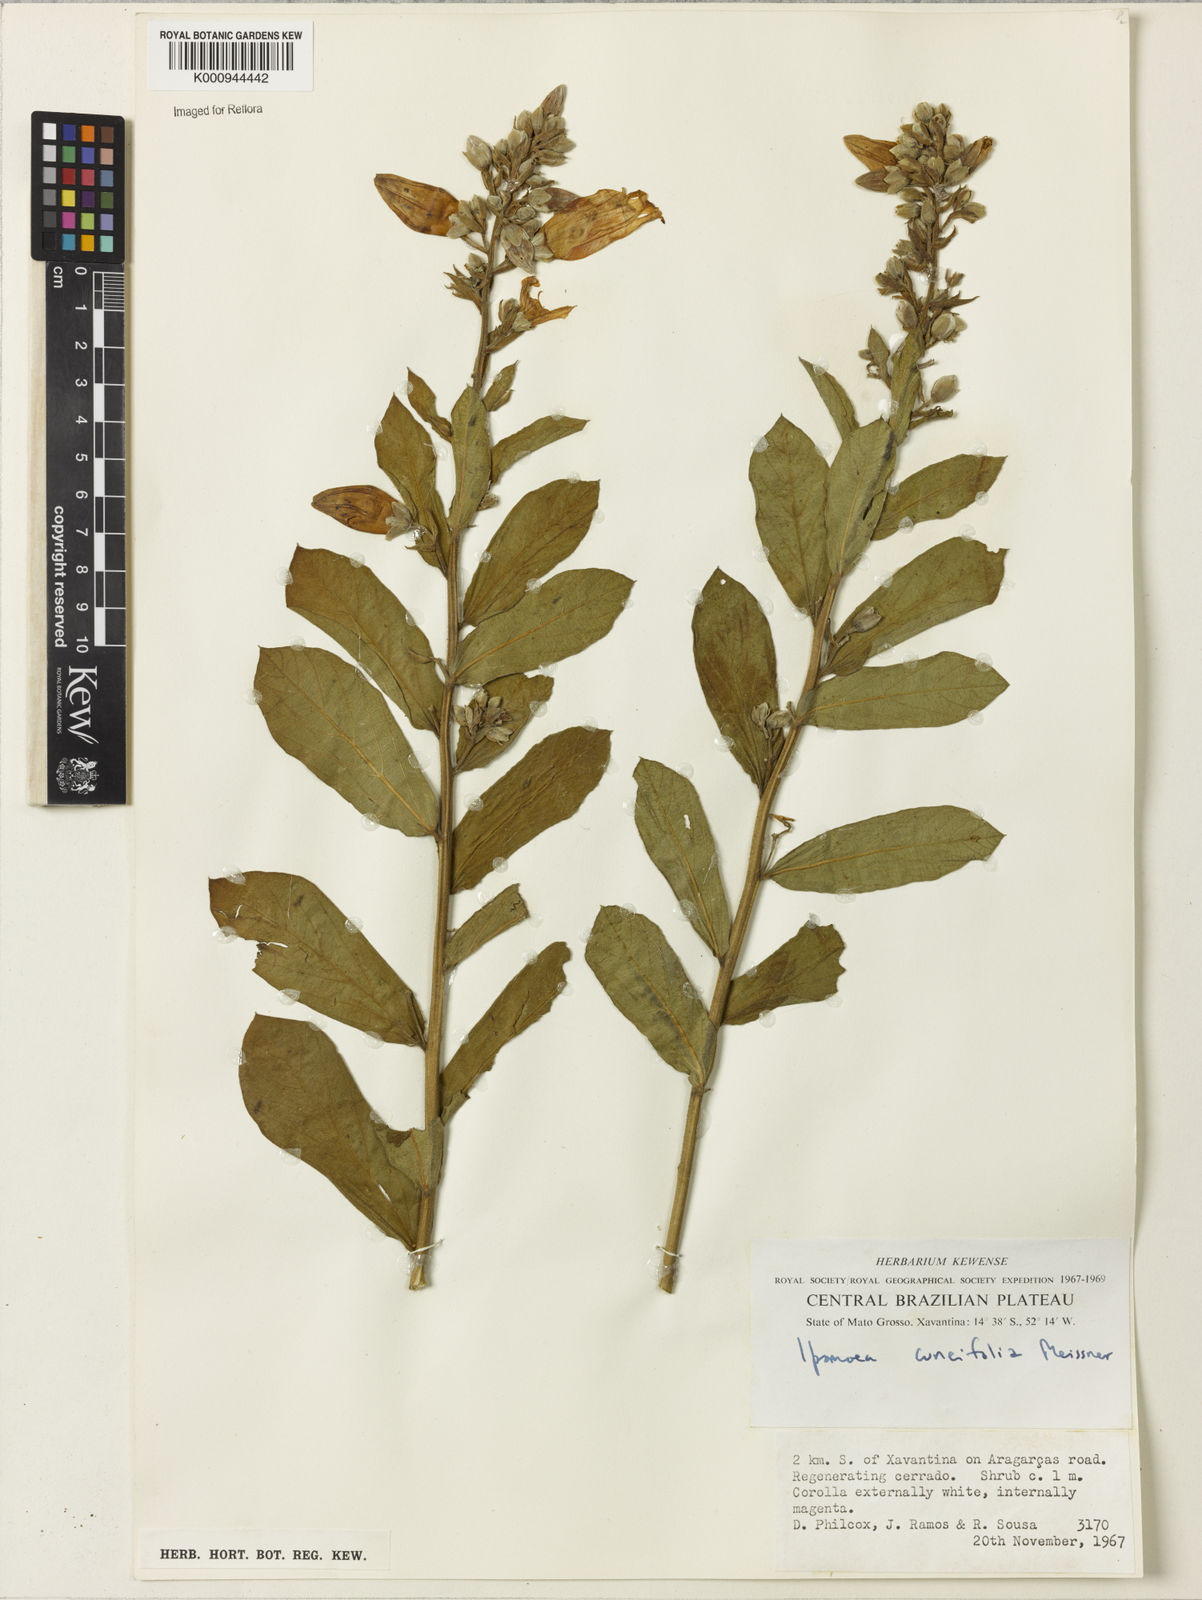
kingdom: Plantae
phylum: Tracheophyta
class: Magnoliopsida
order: Solanales
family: Convolvulaceae
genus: Ipomoea
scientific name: Ipomoea cuneifolia
